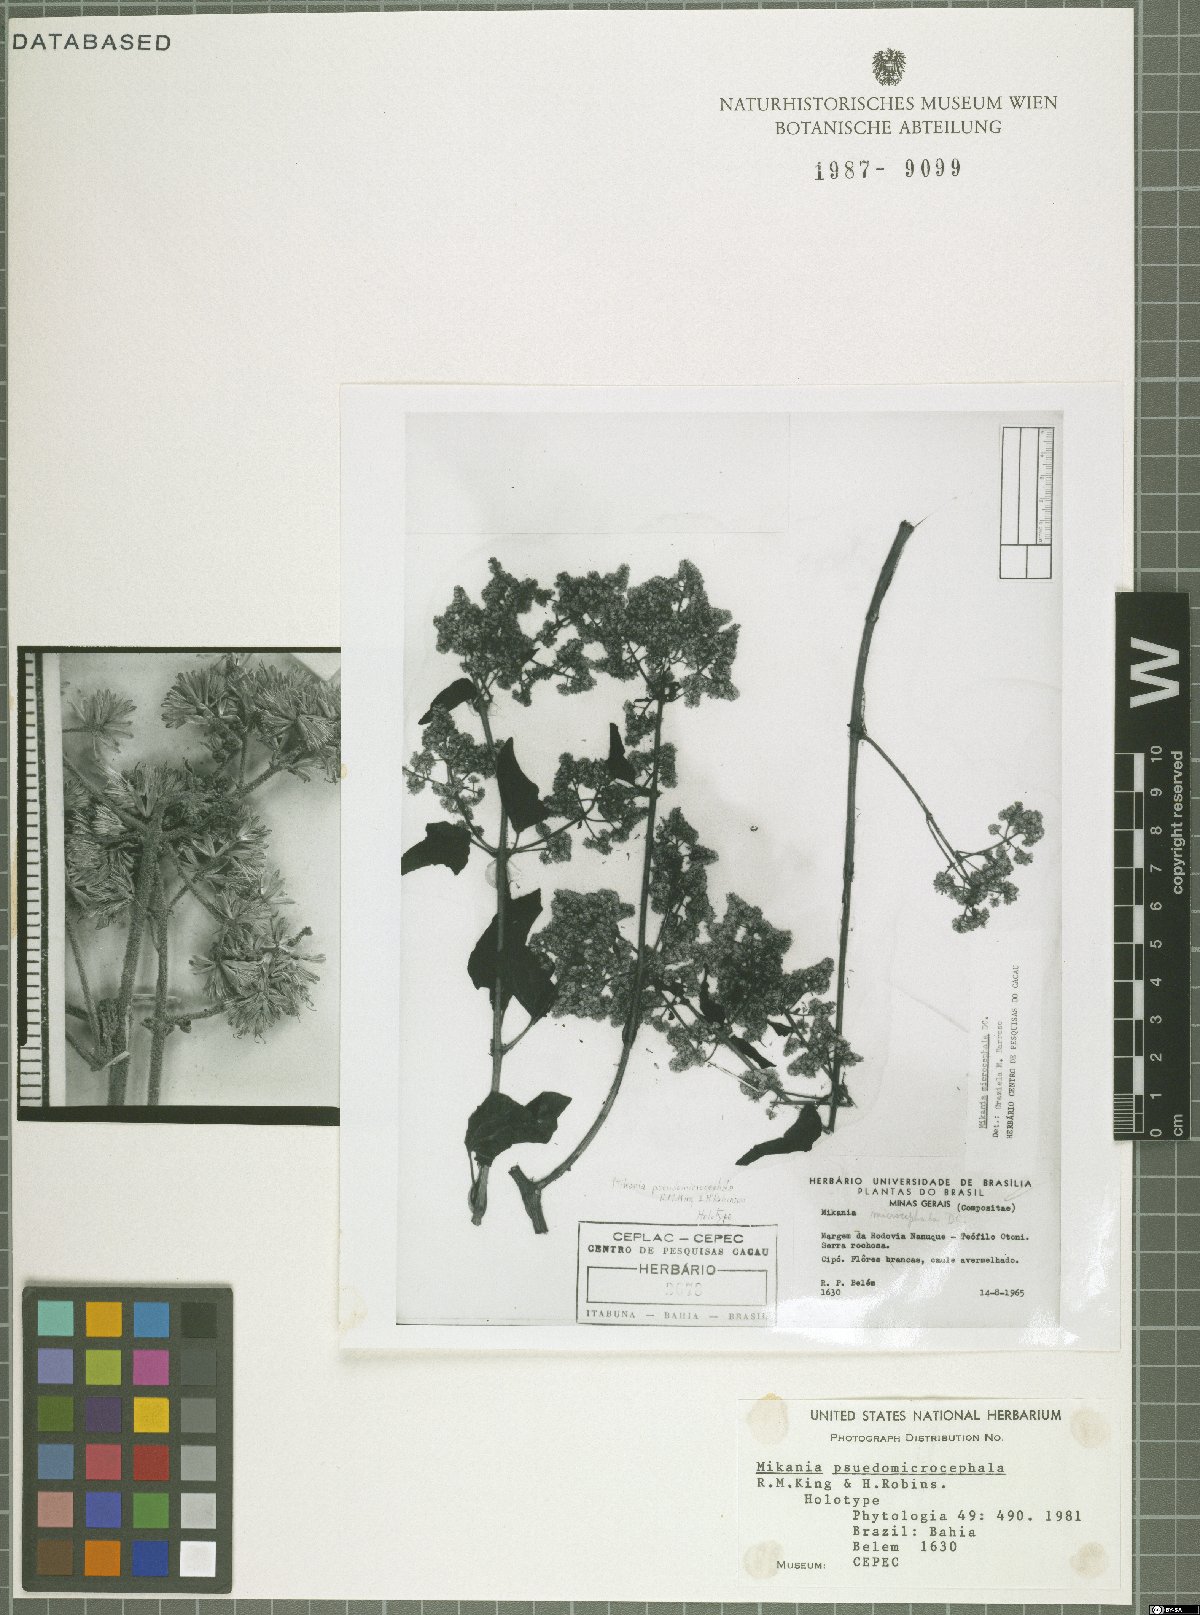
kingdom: Plantae
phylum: Tracheophyta
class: Magnoliopsida
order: Asterales
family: Asteraceae
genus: Mikania
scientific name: Mikania pseudomicrocephala
